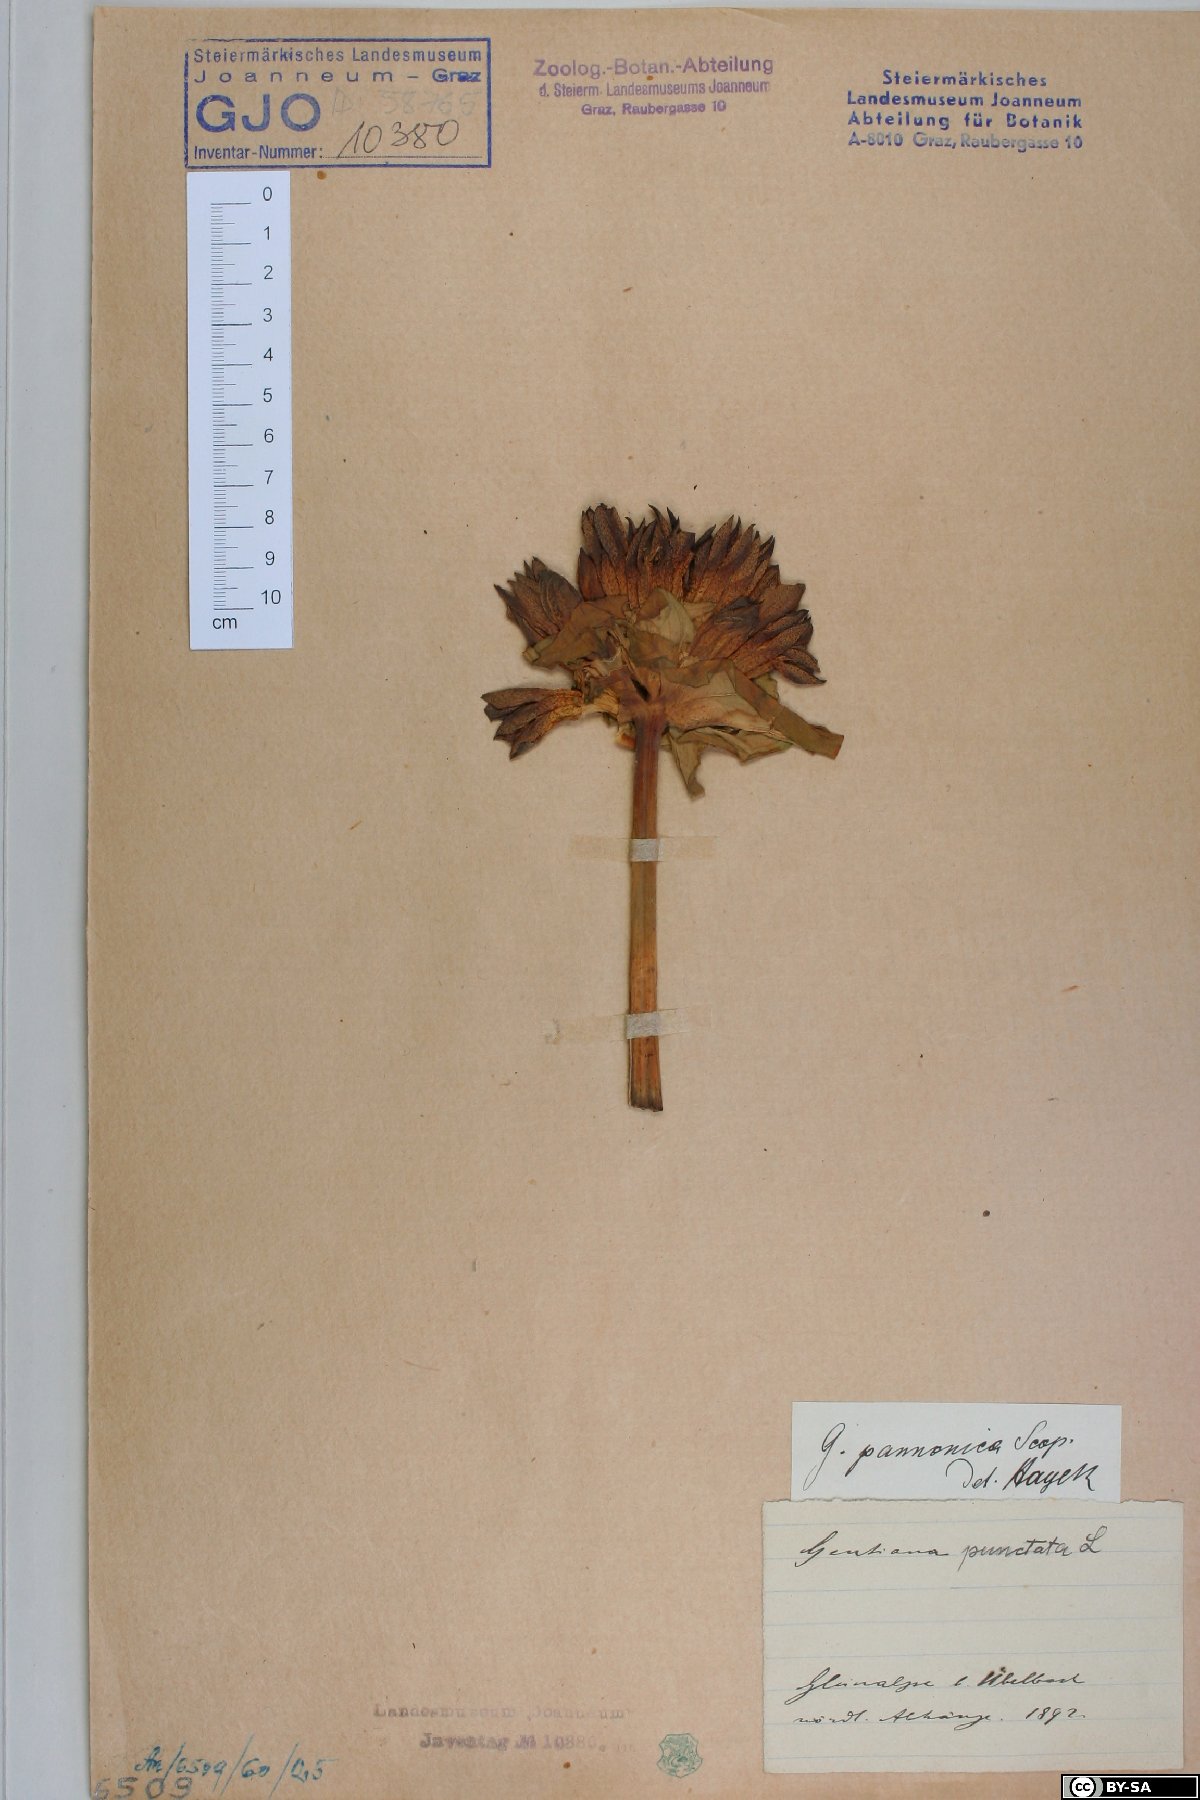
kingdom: Plantae
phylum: Tracheophyta
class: Magnoliopsida
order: Gentianales
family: Gentianaceae
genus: Gentiana
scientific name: Gentiana pannonica
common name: Hungarian gentian
